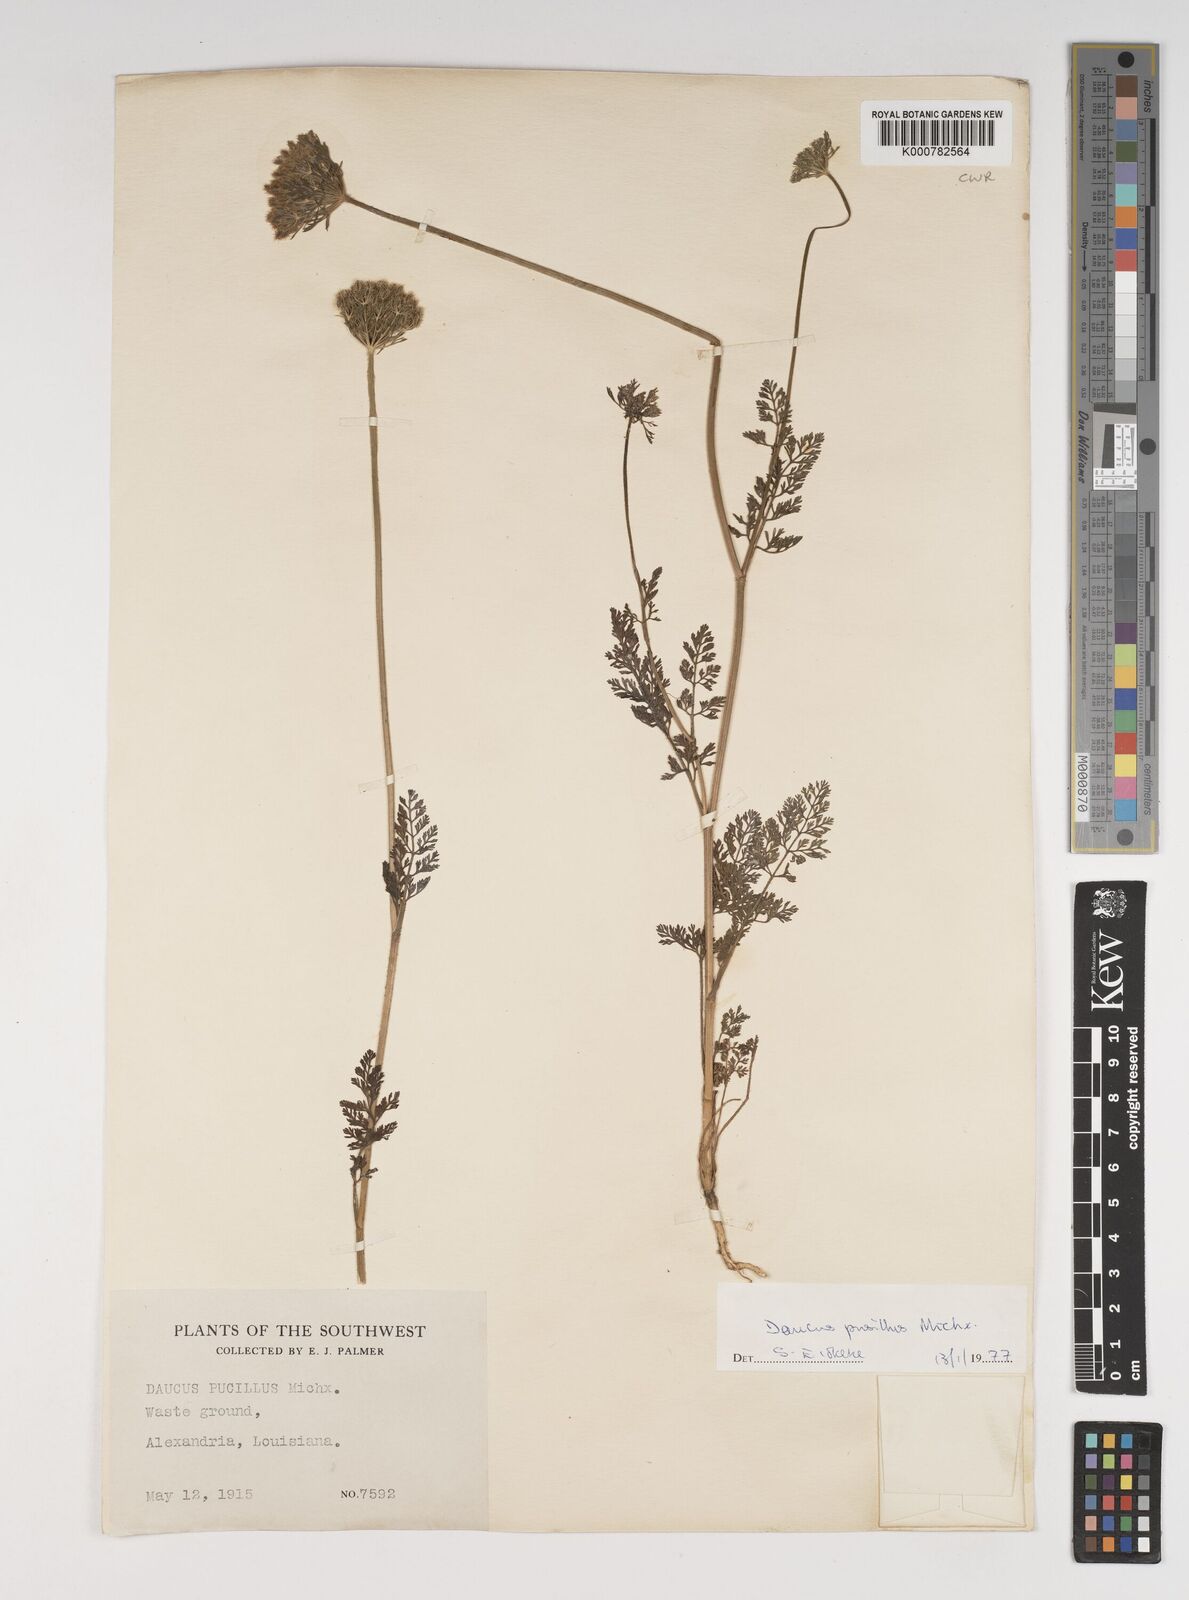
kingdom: Plantae
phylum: Tracheophyta
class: Magnoliopsida
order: Apiales
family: Apiaceae
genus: Daucus
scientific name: Daucus pusillus
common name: Southwest wild carrot
